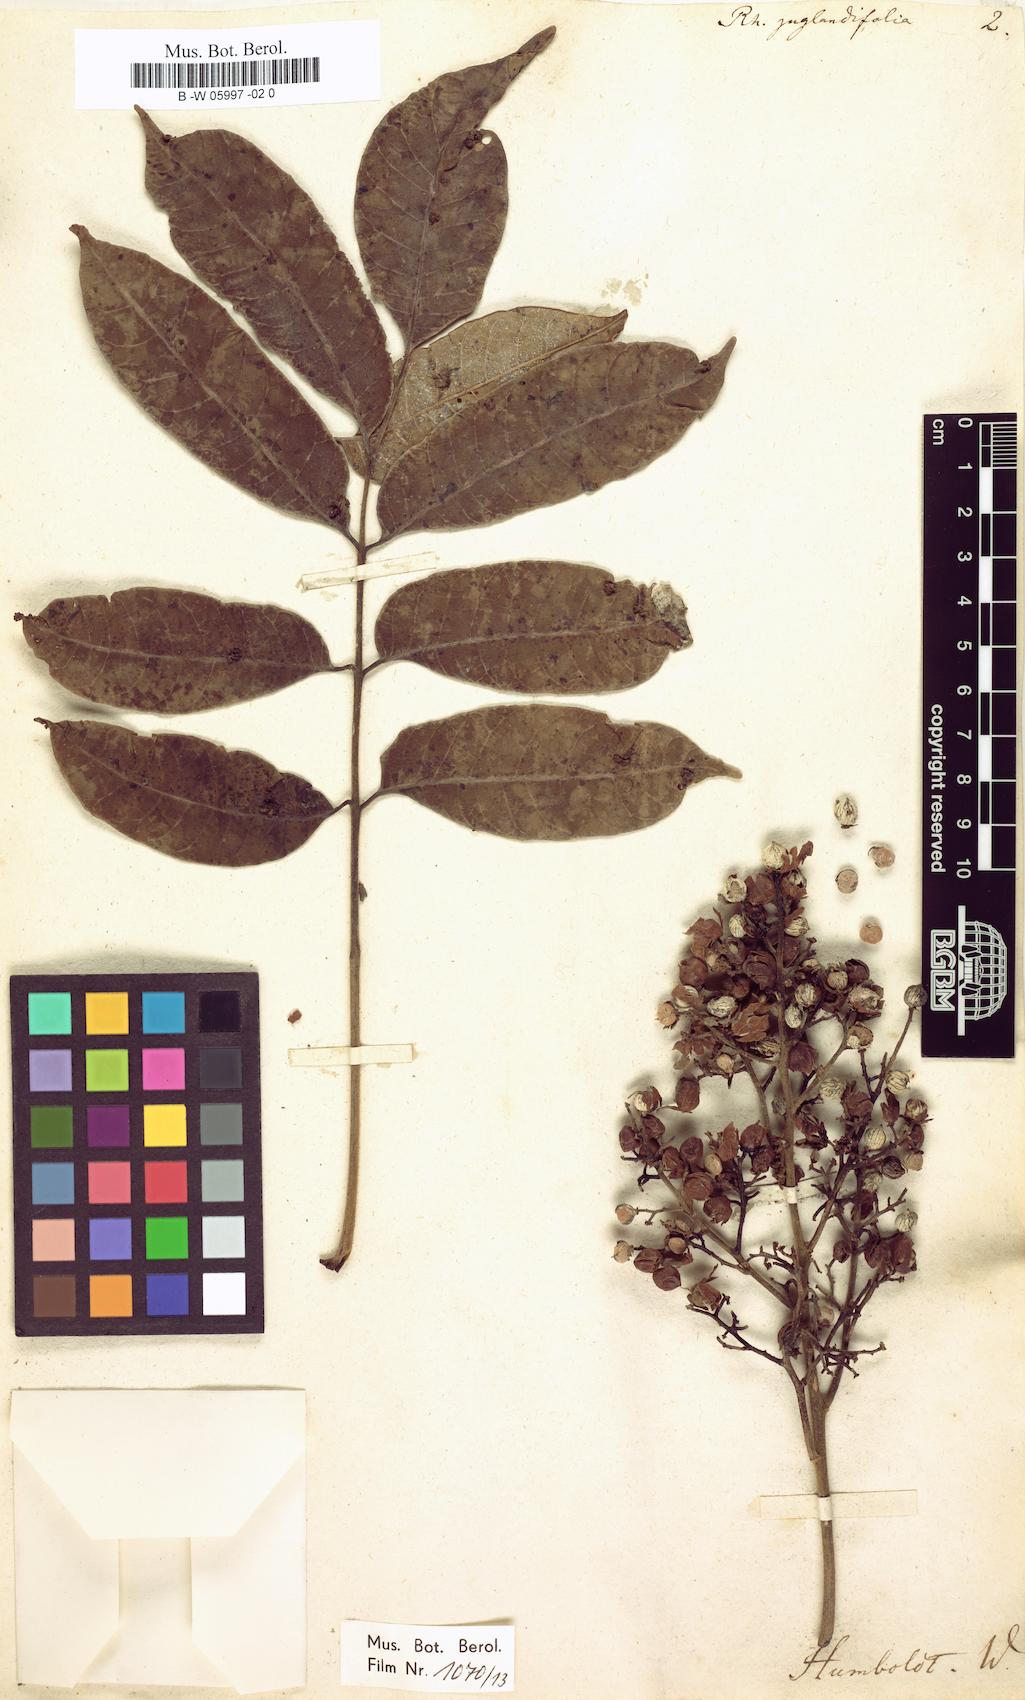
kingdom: Plantae
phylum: Tracheophyta
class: Magnoliopsida
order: Sapindales
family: Anacardiaceae
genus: Toxicodendron
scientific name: Toxicodendron
